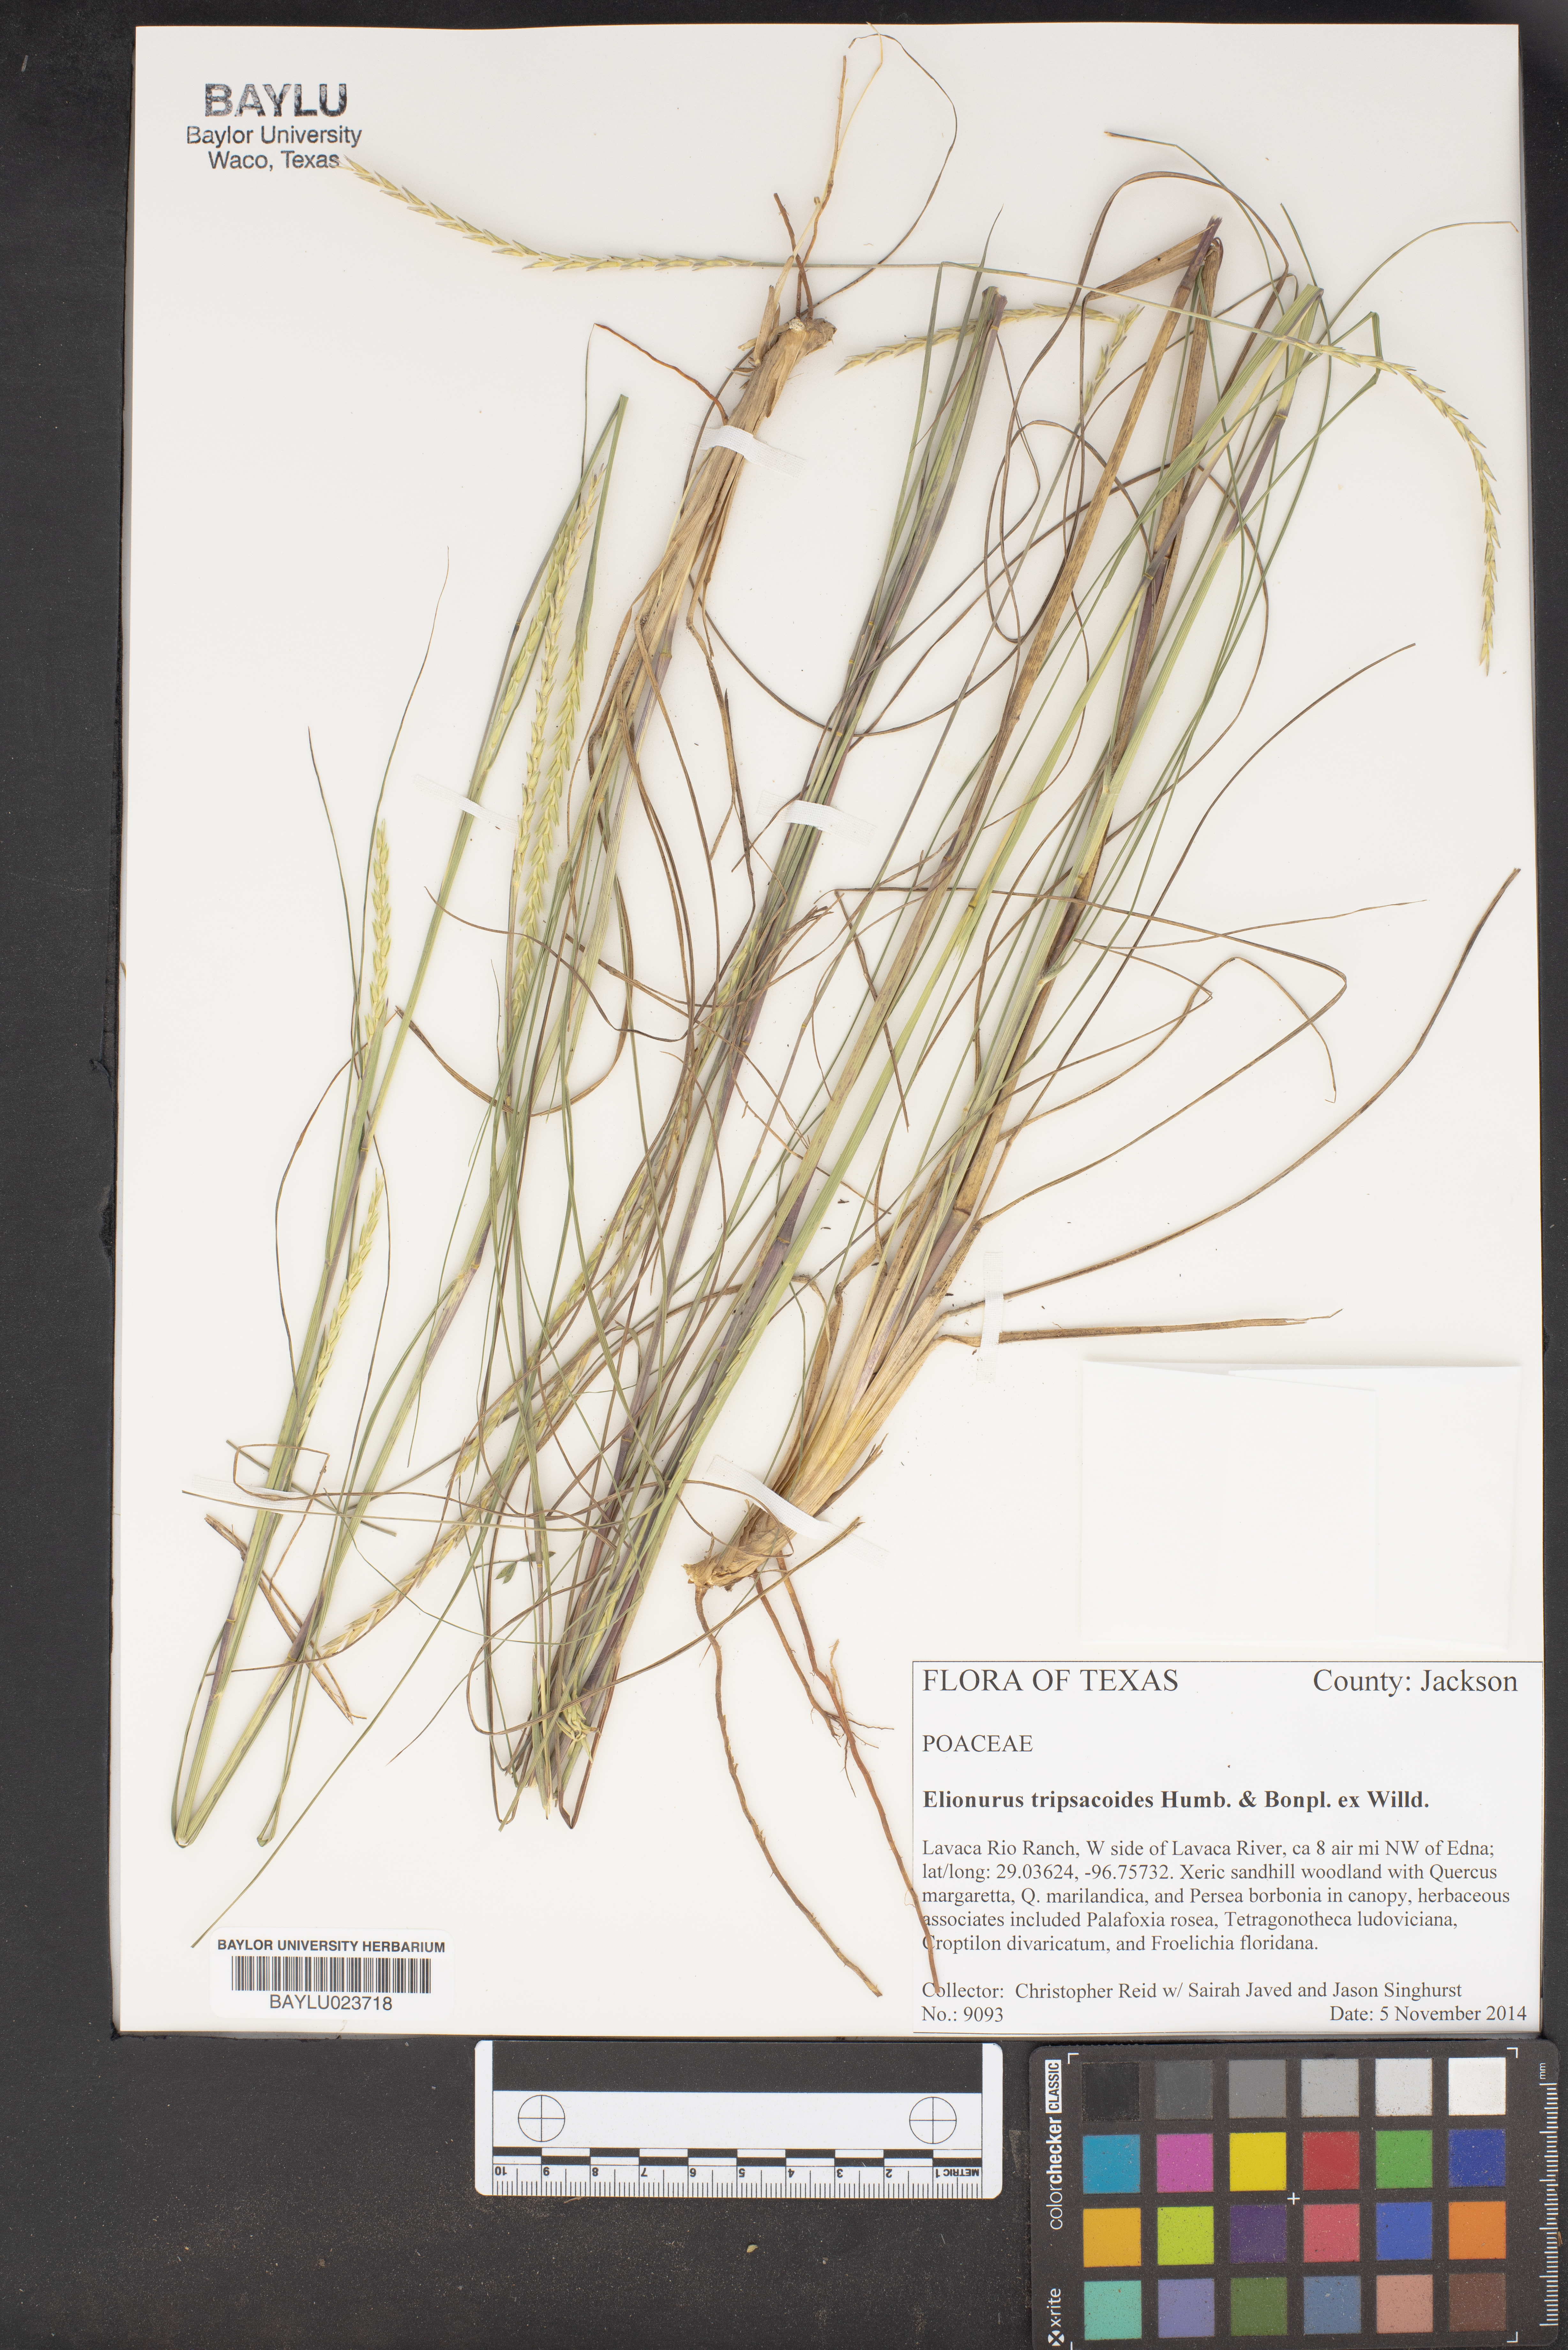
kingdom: Plantae
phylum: Tracheophyta
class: Liliopsida
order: Poales
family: Poaceae
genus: Elionurus
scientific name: Elionurus tripsacoides
